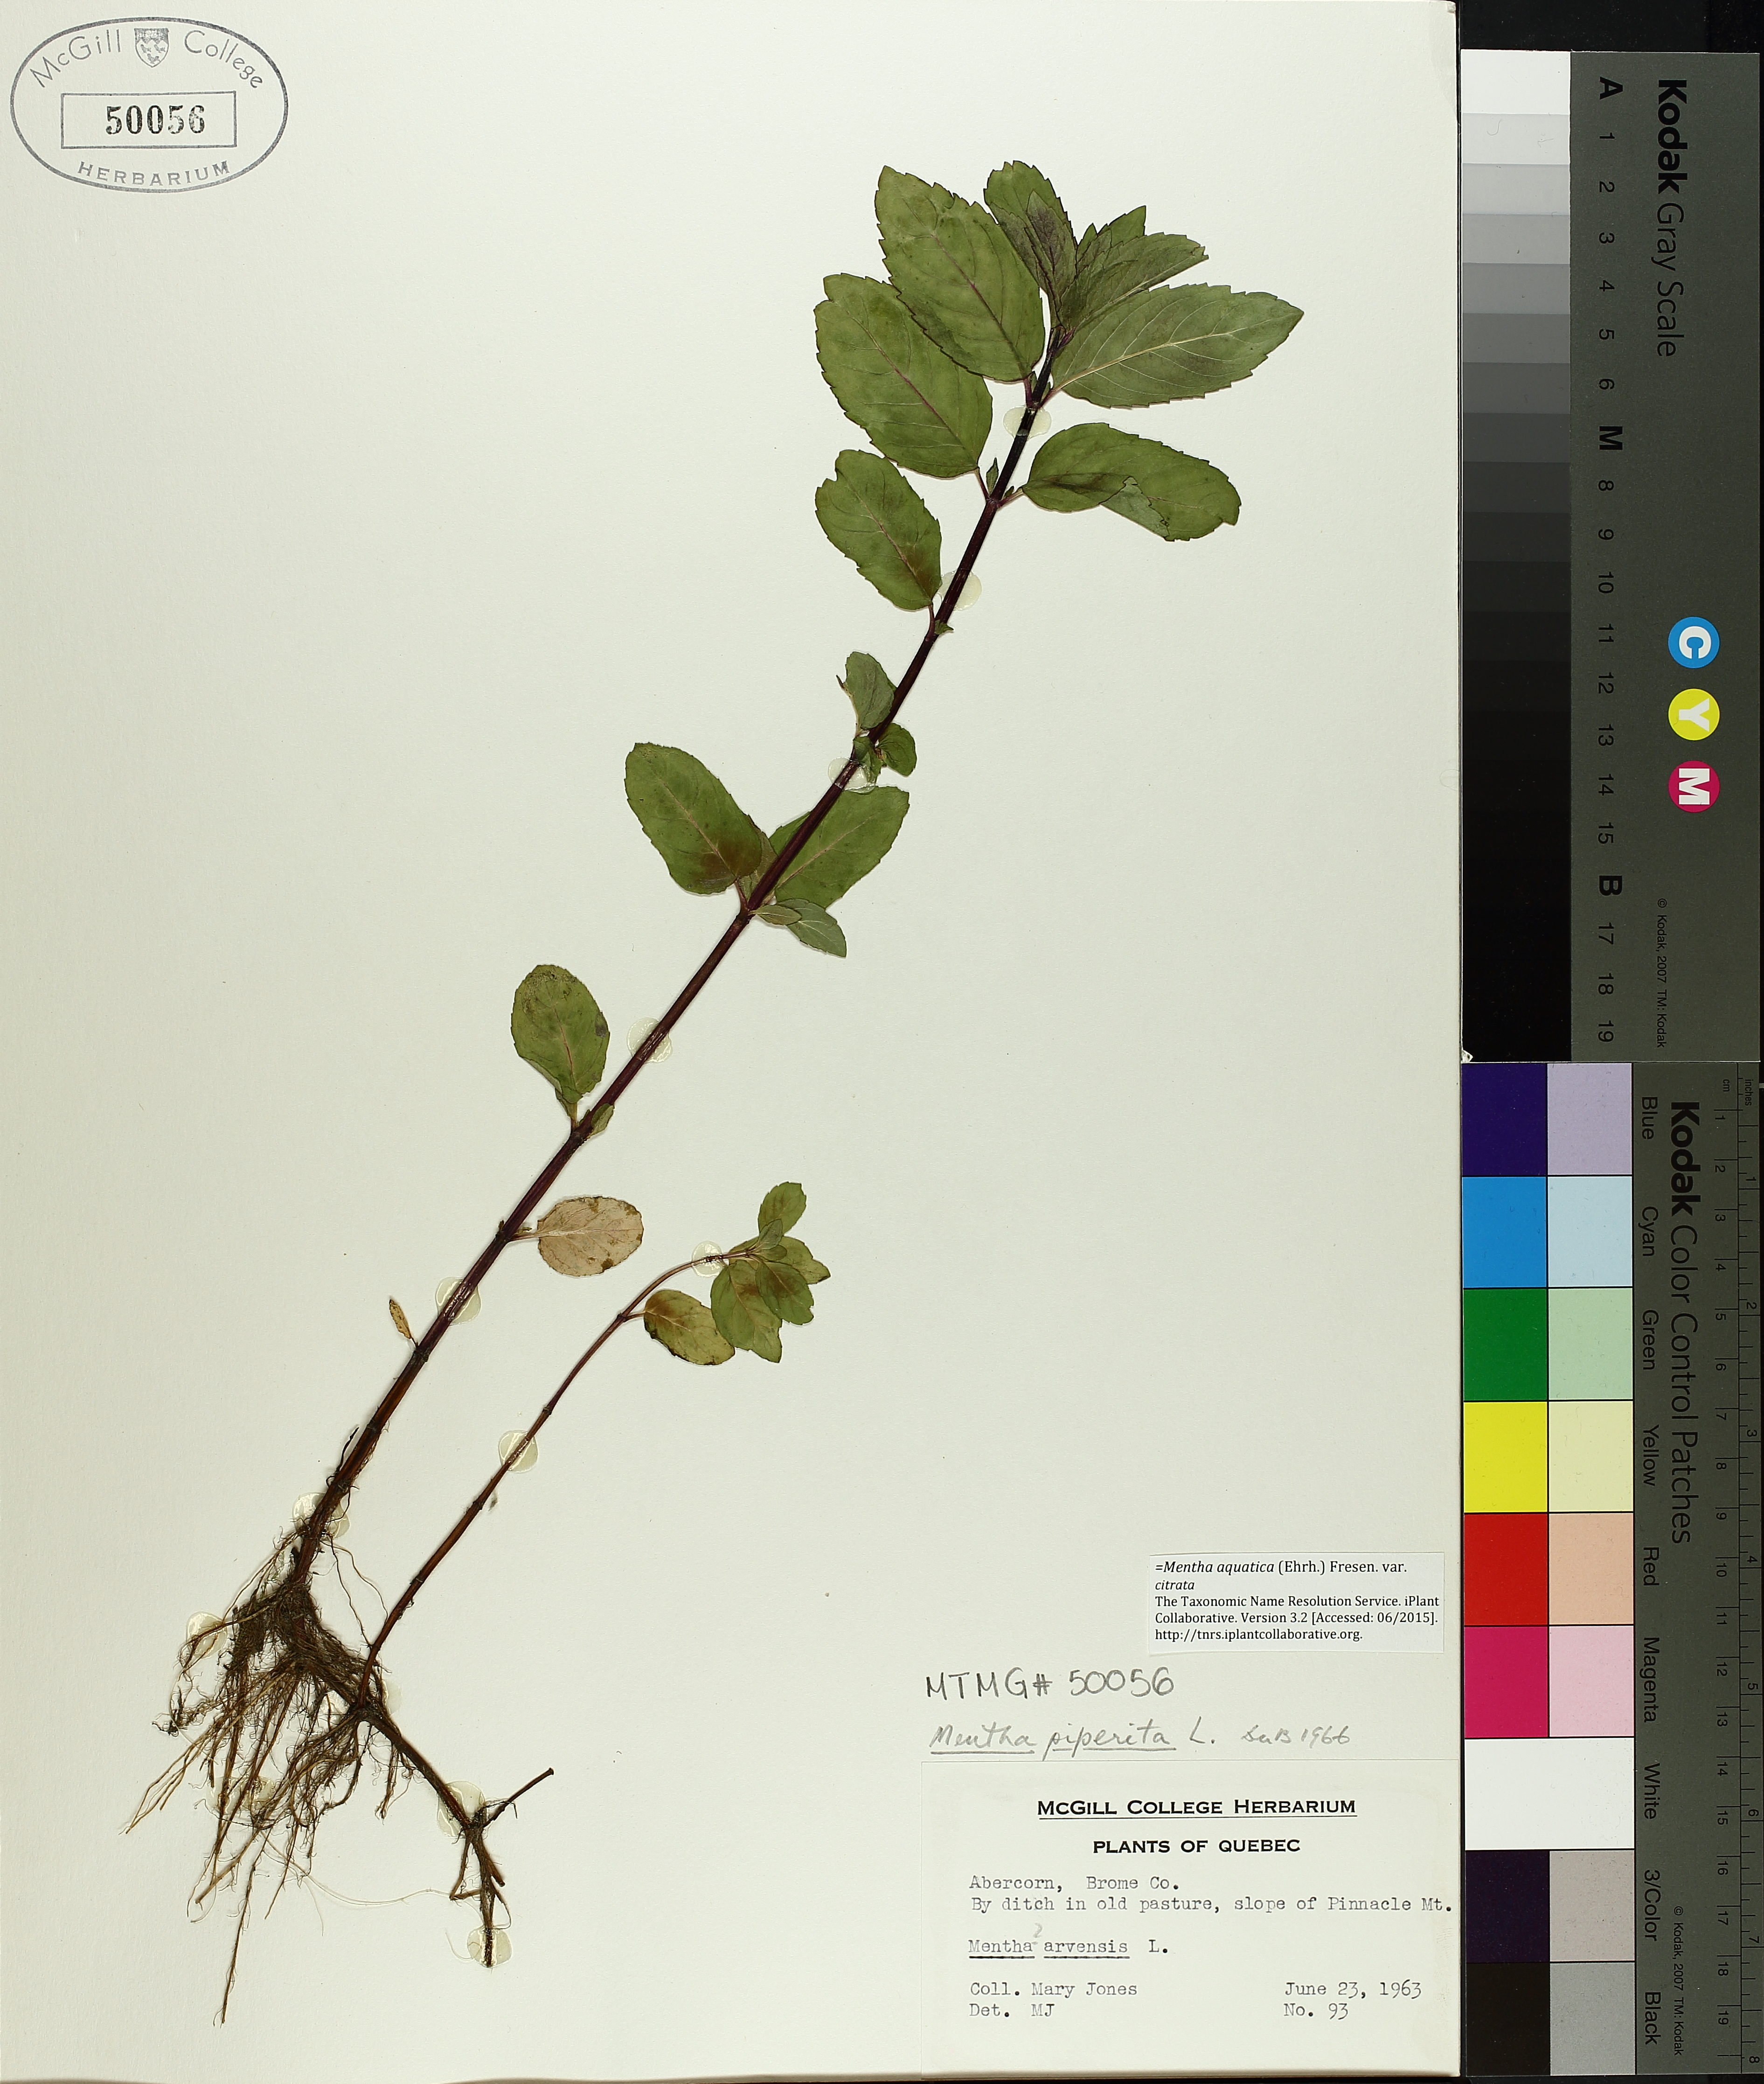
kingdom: Plantae
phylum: Tracheophyta
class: Magnoliopsida
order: Lamiales
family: Lamiaceae
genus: Mentha
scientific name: Mentha piperita
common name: Peppermint
